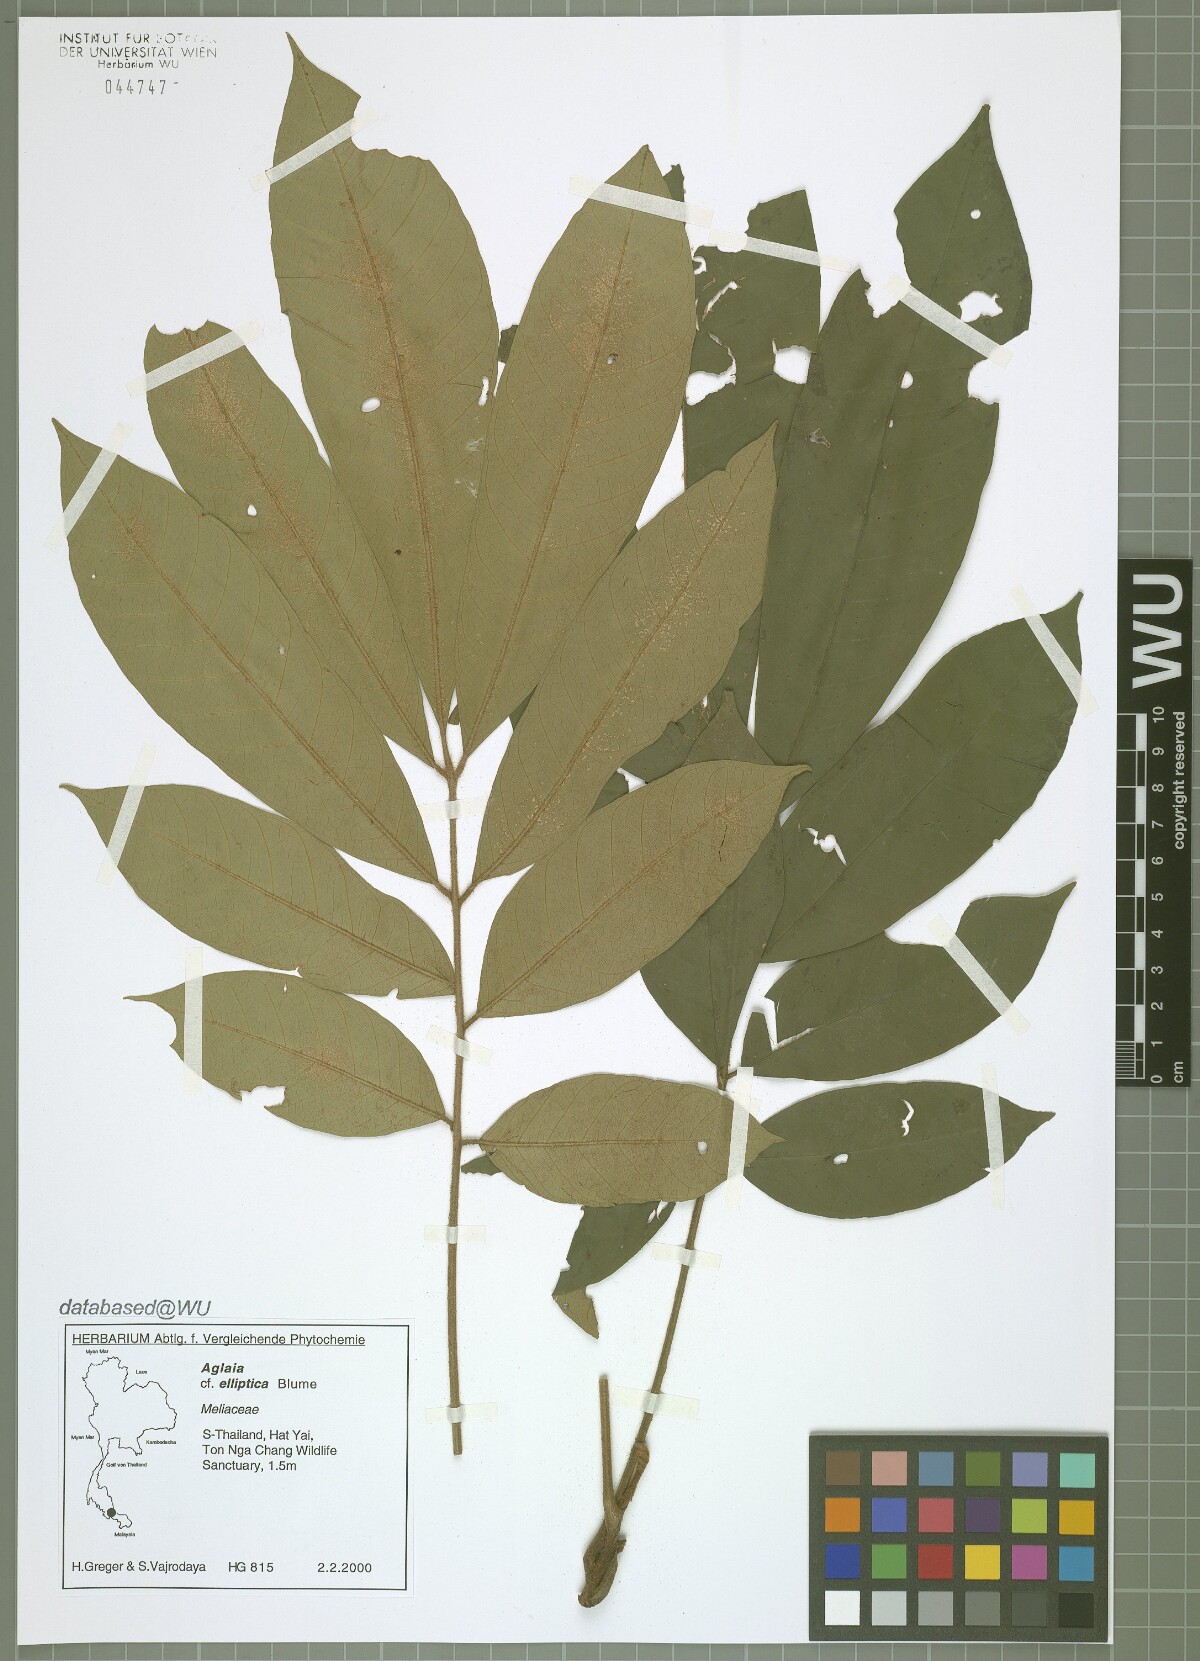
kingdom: Plantae
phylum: Tracheophyta
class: Magnoliopsida
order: Sapindales
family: Meliaceae
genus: Aglaia
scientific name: Aglaia elliptica
